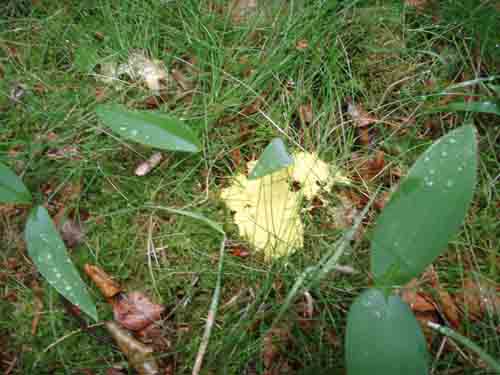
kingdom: Protozoa
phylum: Mycetozoa
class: Myxomycetes
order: Physarales
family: Physaraceae
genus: Fuligo
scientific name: Fuligo septica
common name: gul troldsmør
